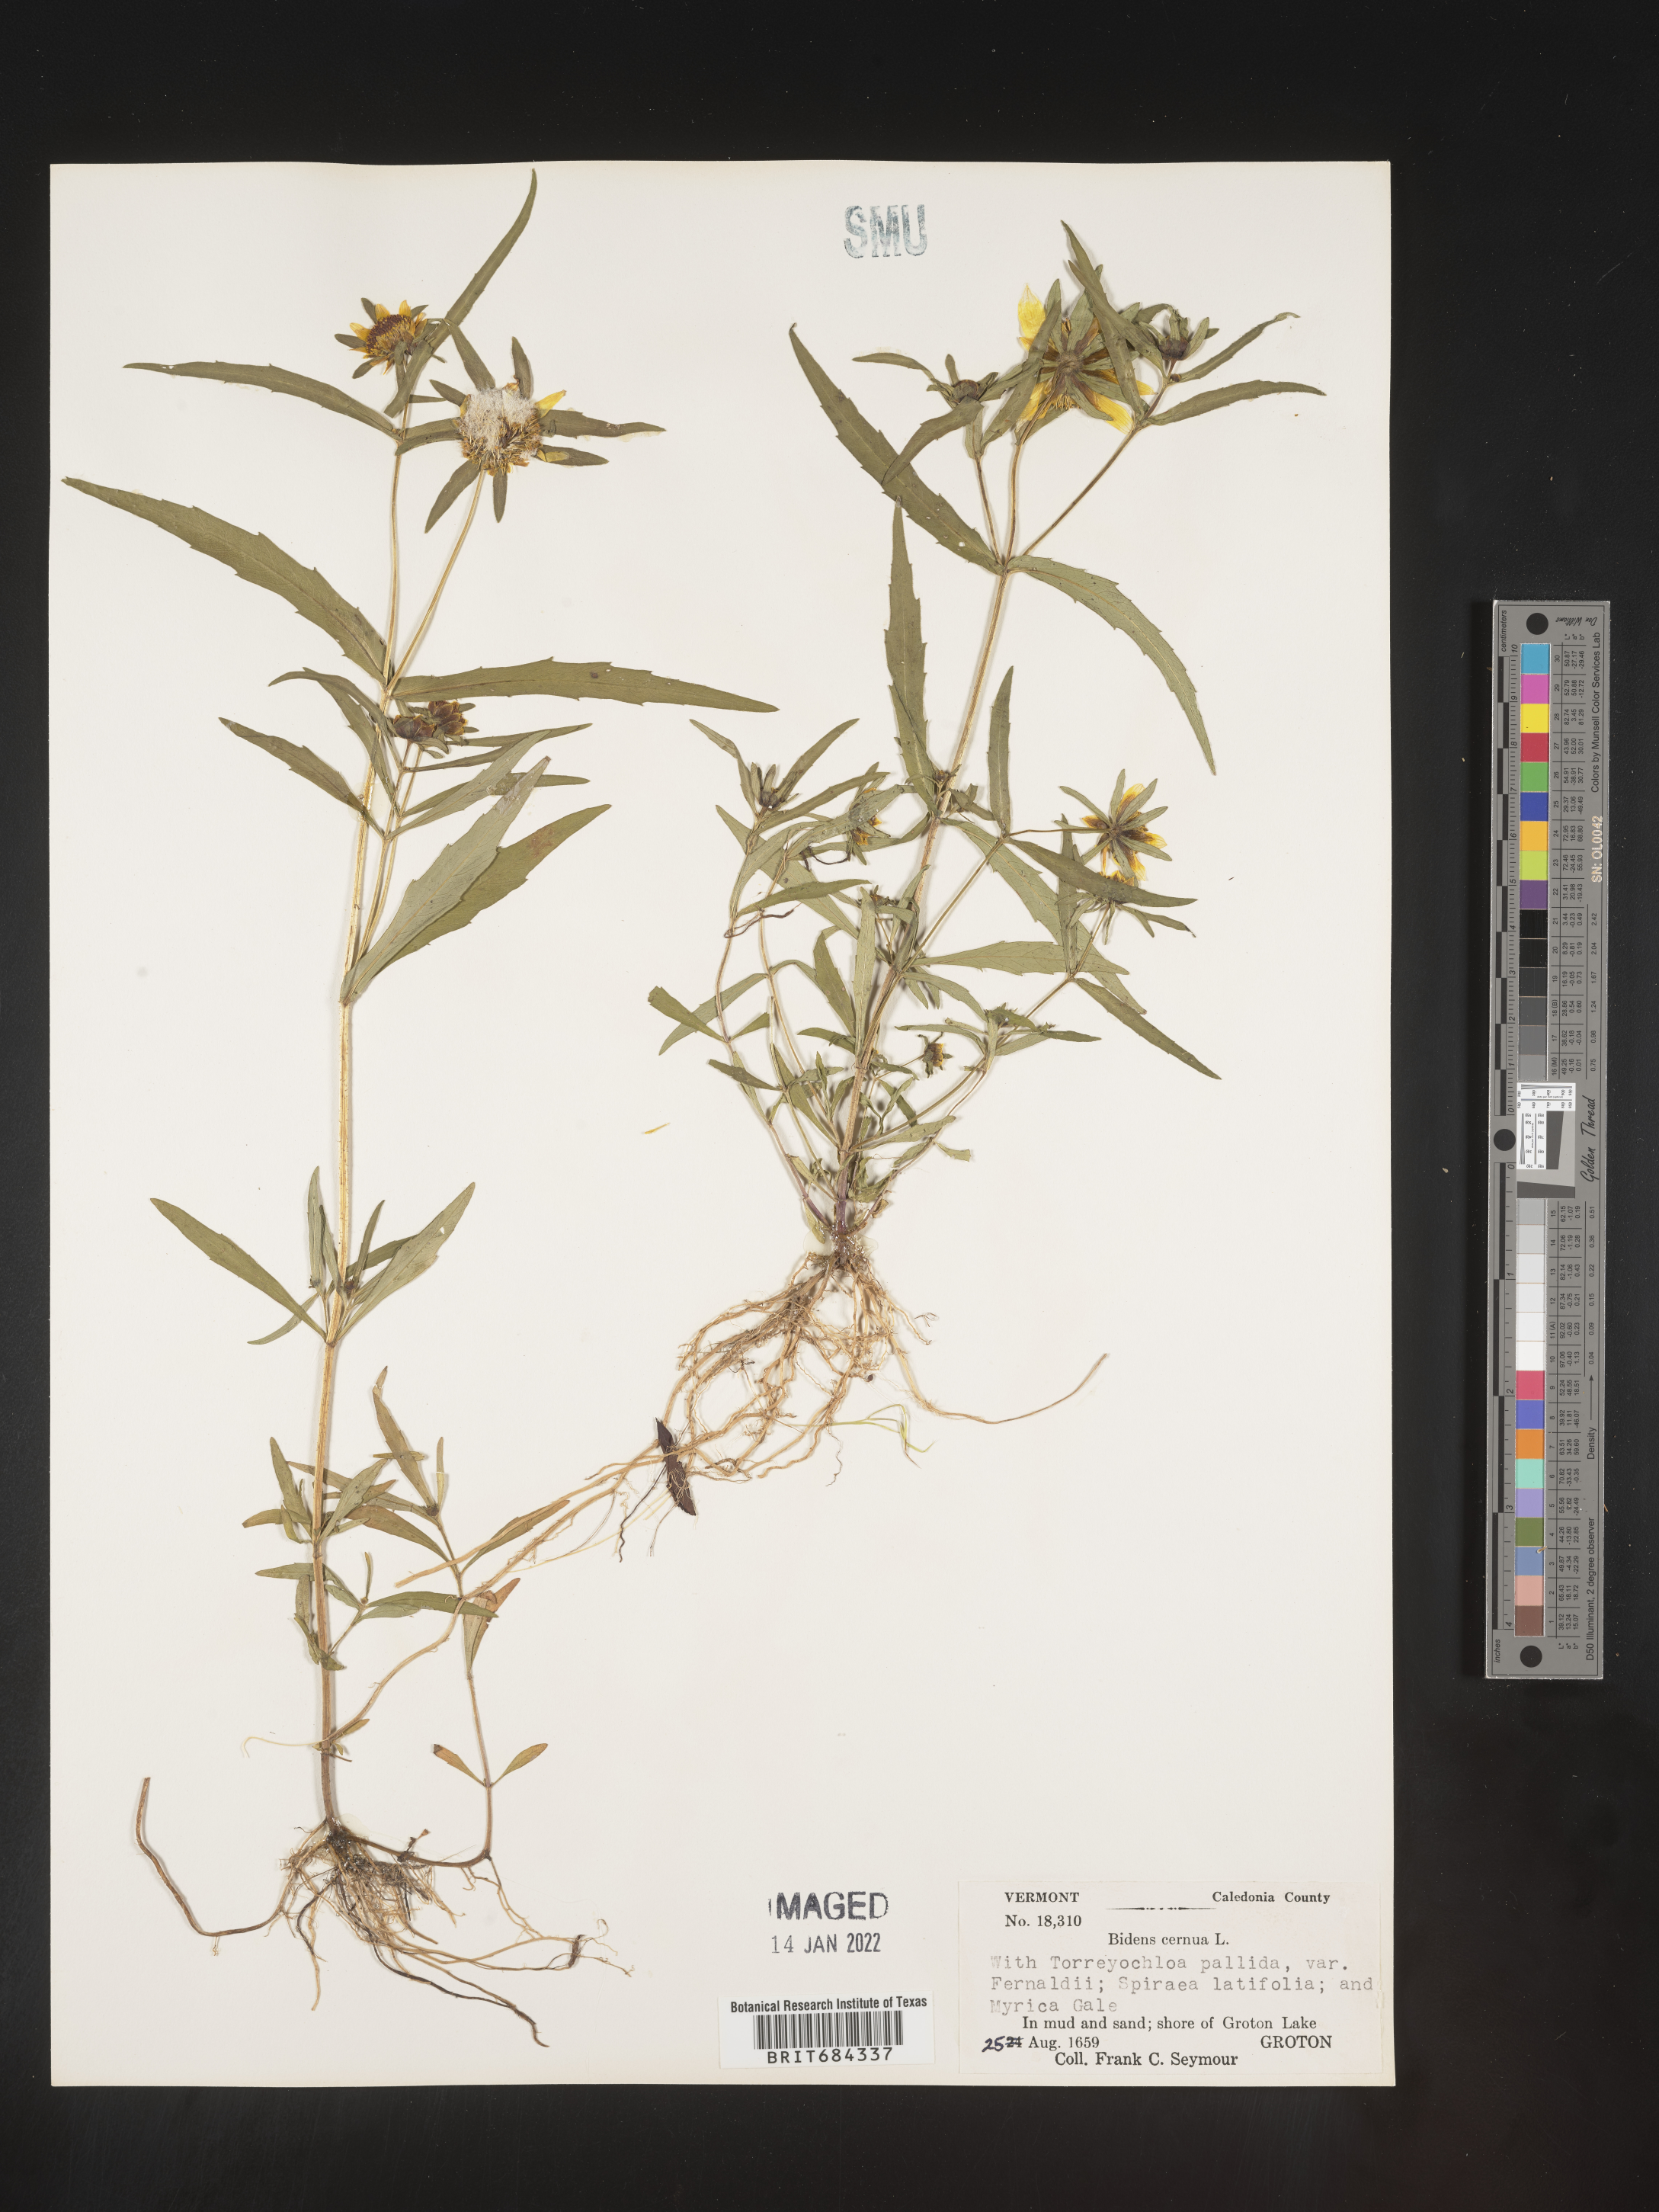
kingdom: Plantae
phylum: Tracheophyta
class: Magnoliopsida
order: Asterales
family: Asteraceae
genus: Bidens
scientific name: Bidens cernua
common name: Nodding bur-marigold
